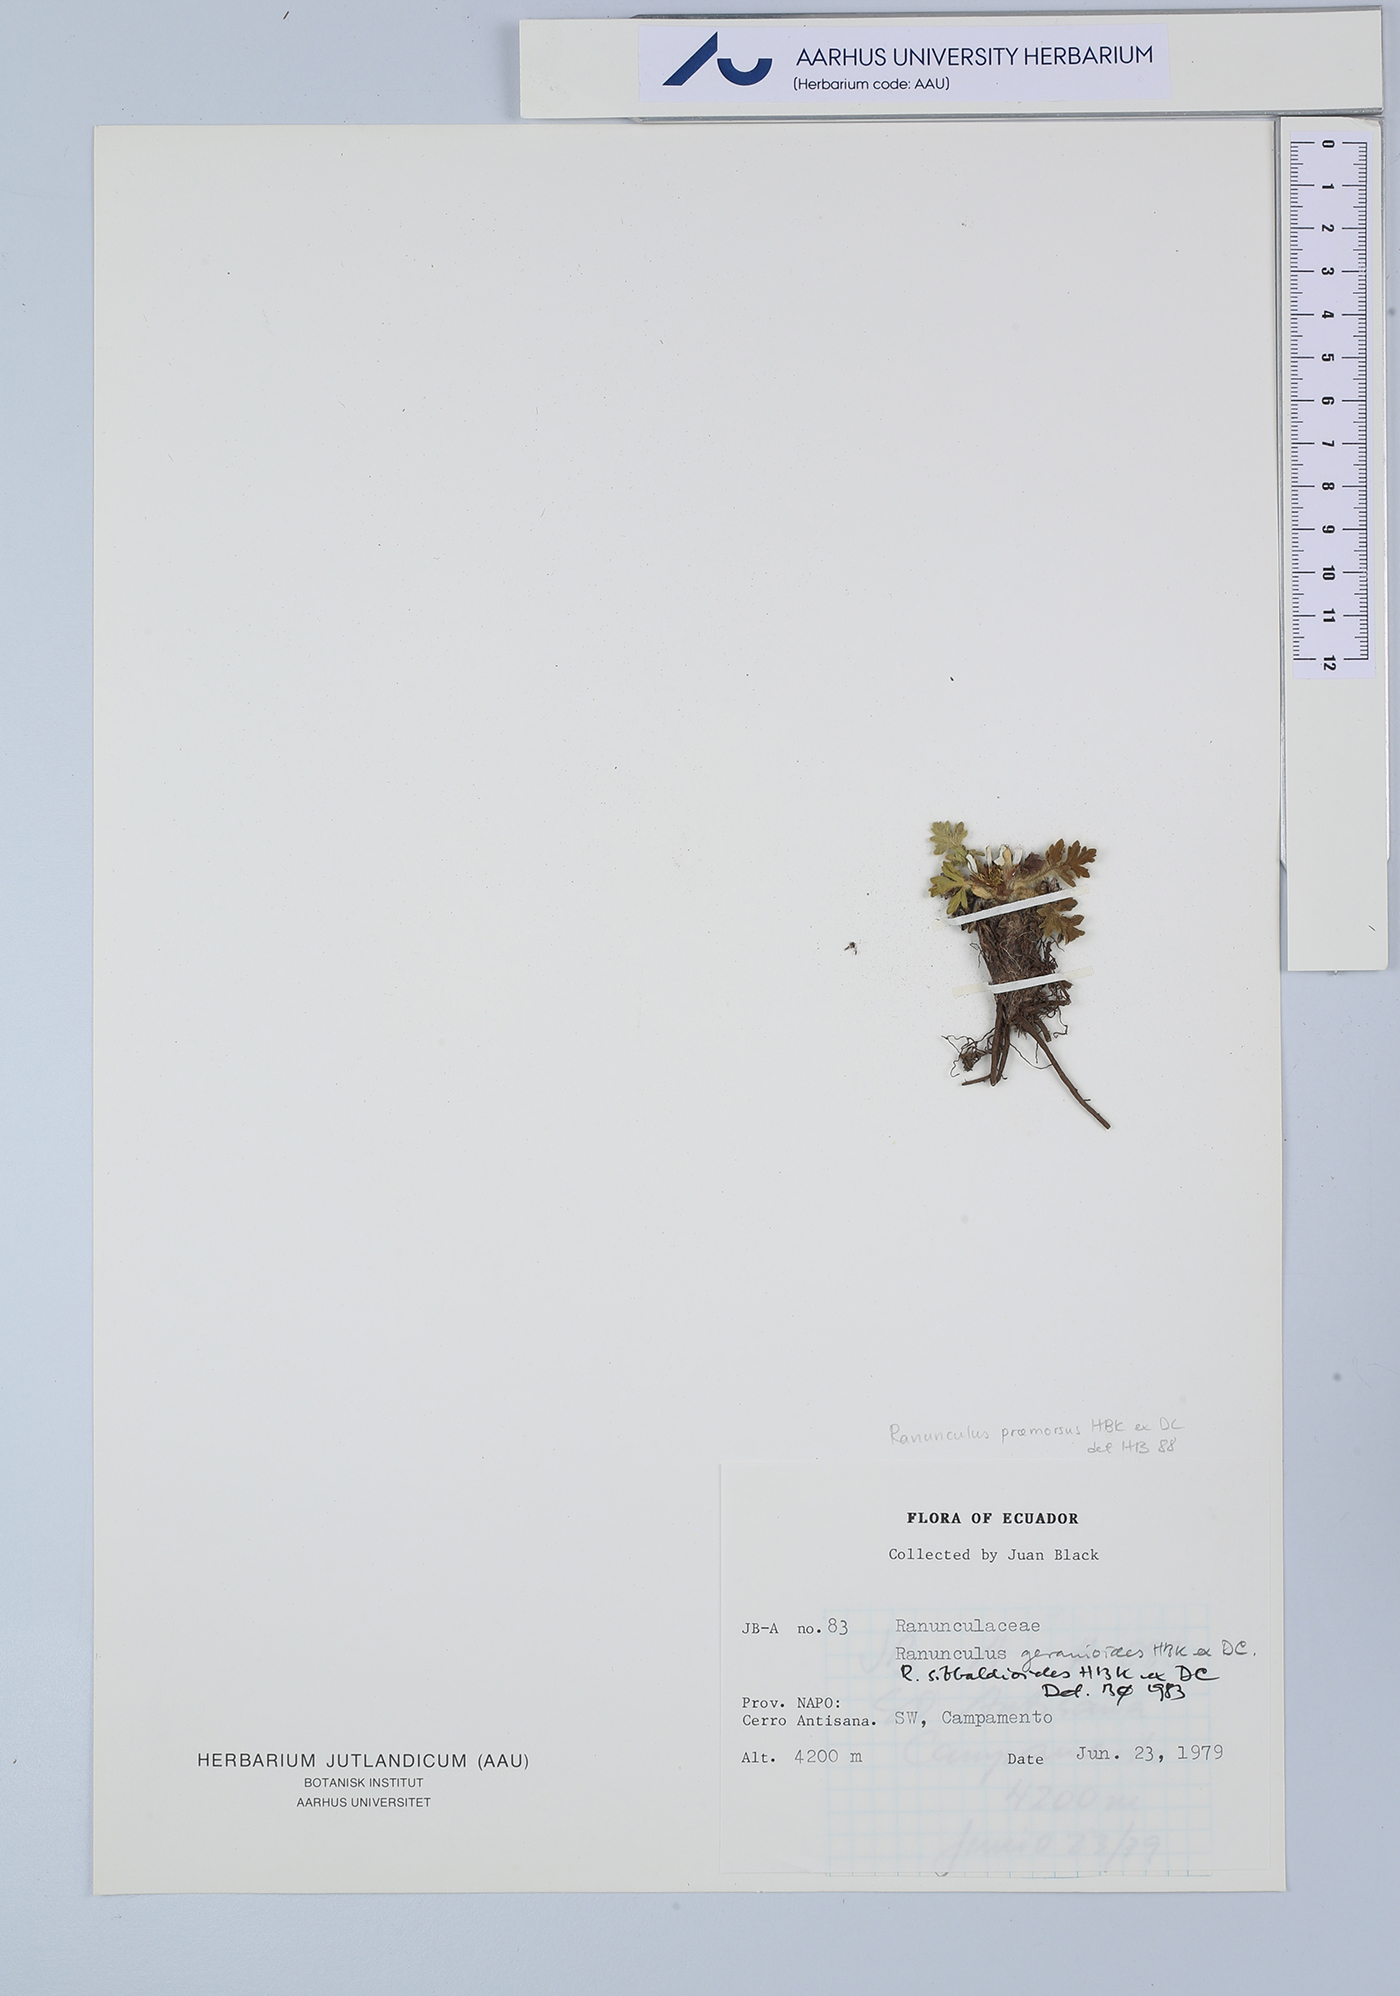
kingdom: Plantae
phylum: Tracheophyta
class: Magnoliopsida
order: Ranunculales
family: Ranunculaceae
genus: Ranunculus
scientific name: Ranunculus praemorsus
